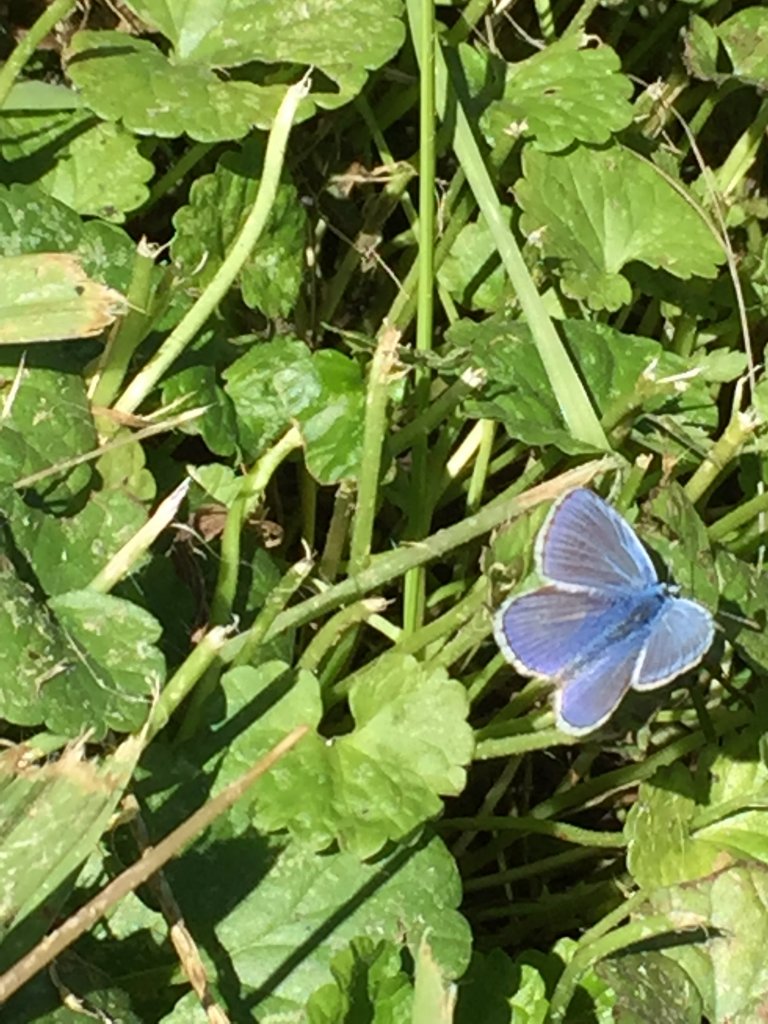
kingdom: Animalia
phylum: Arthropoda
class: Insecta
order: Lepidoptera
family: Lycaenidae
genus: Polyommatus
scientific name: Polyommatus icarus
